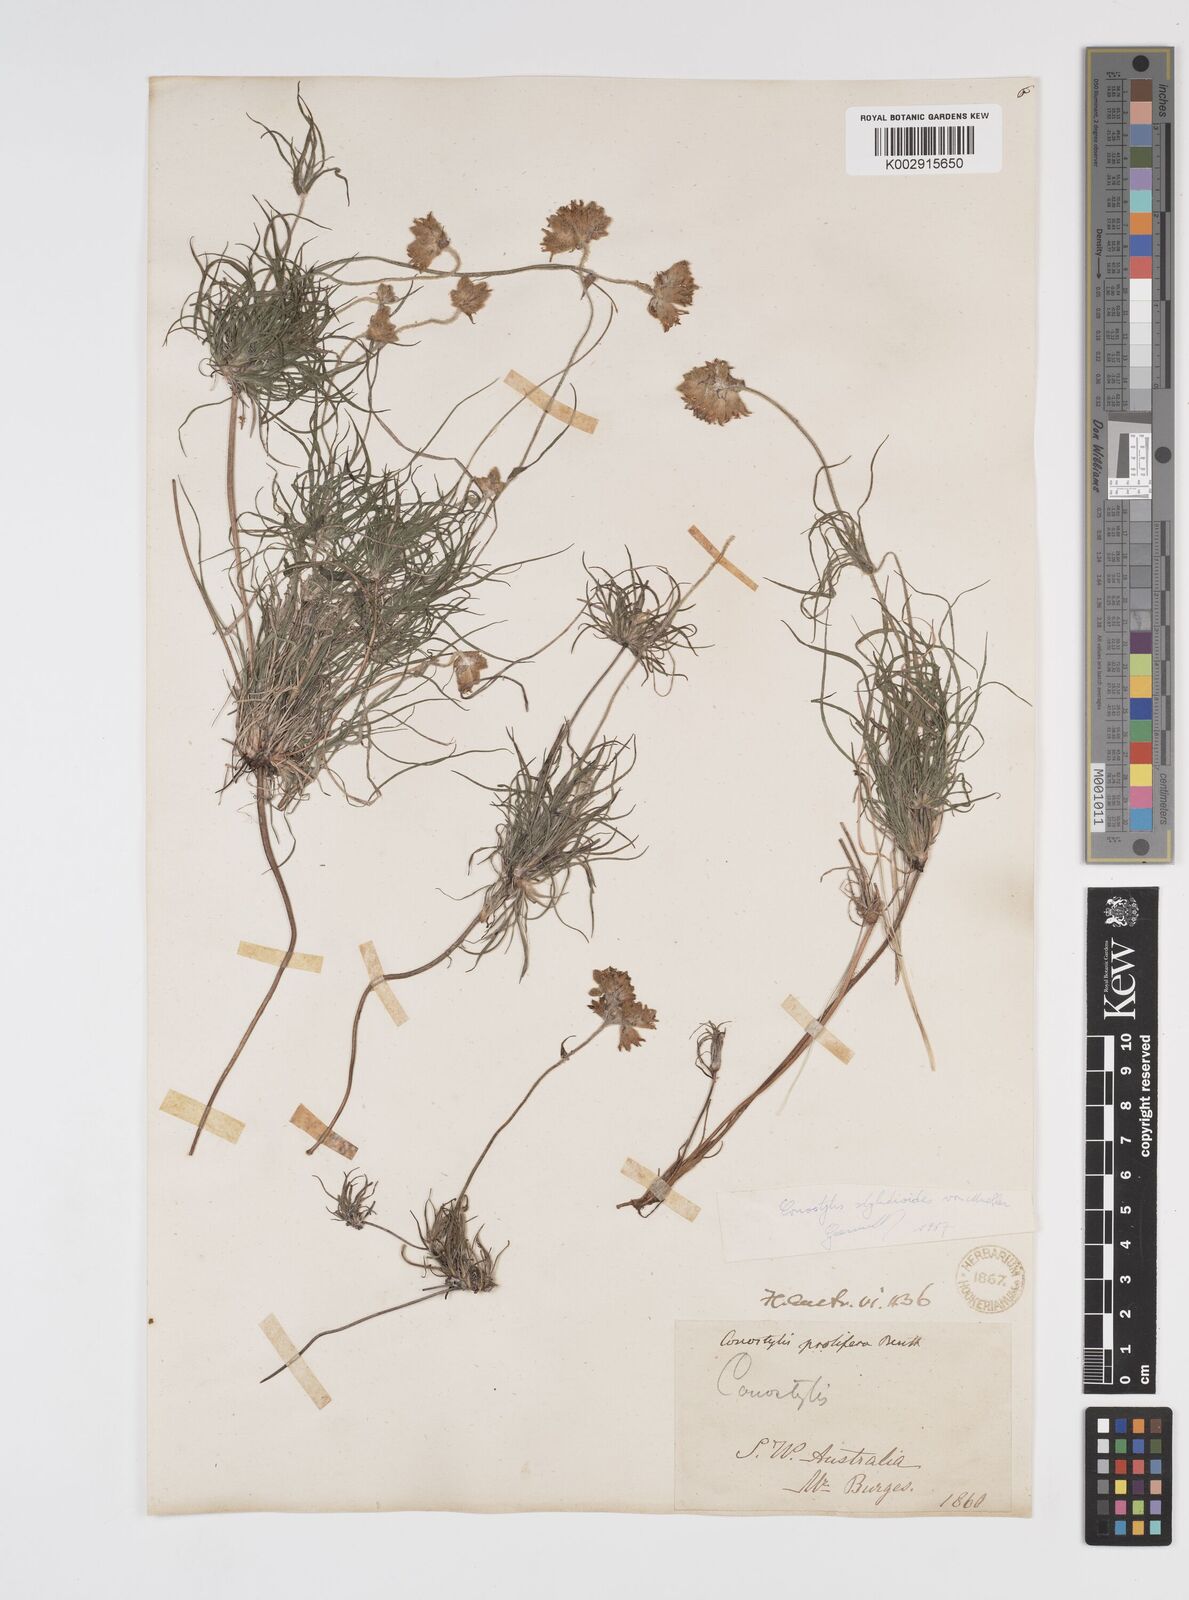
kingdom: Plantae
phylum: Tracheophyta
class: Liliopsida
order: Commelinales
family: Haemodoraceae
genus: Conostylis
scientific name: Conostylis stylidioides
